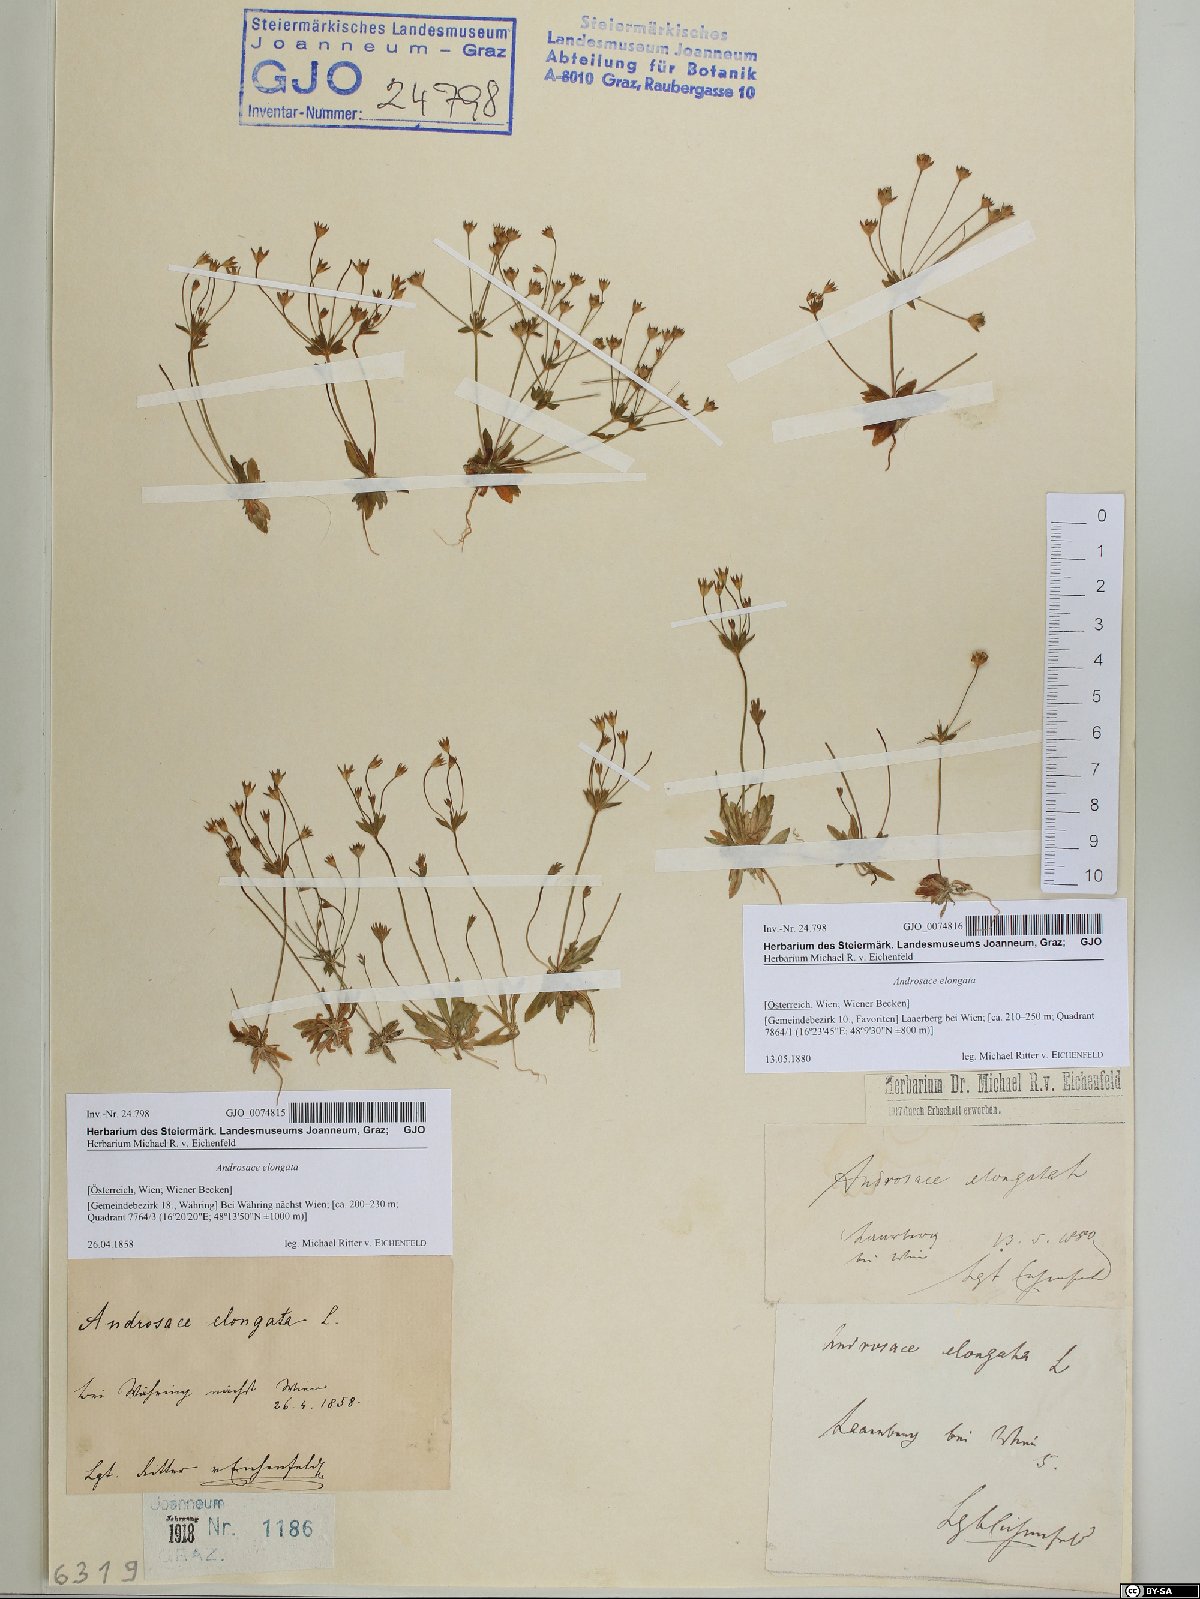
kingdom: Plantae
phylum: Tracheophyta
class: Magnoliopsida
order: Ericales
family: Primulaceae
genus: Androsace
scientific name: Androsace elongata
